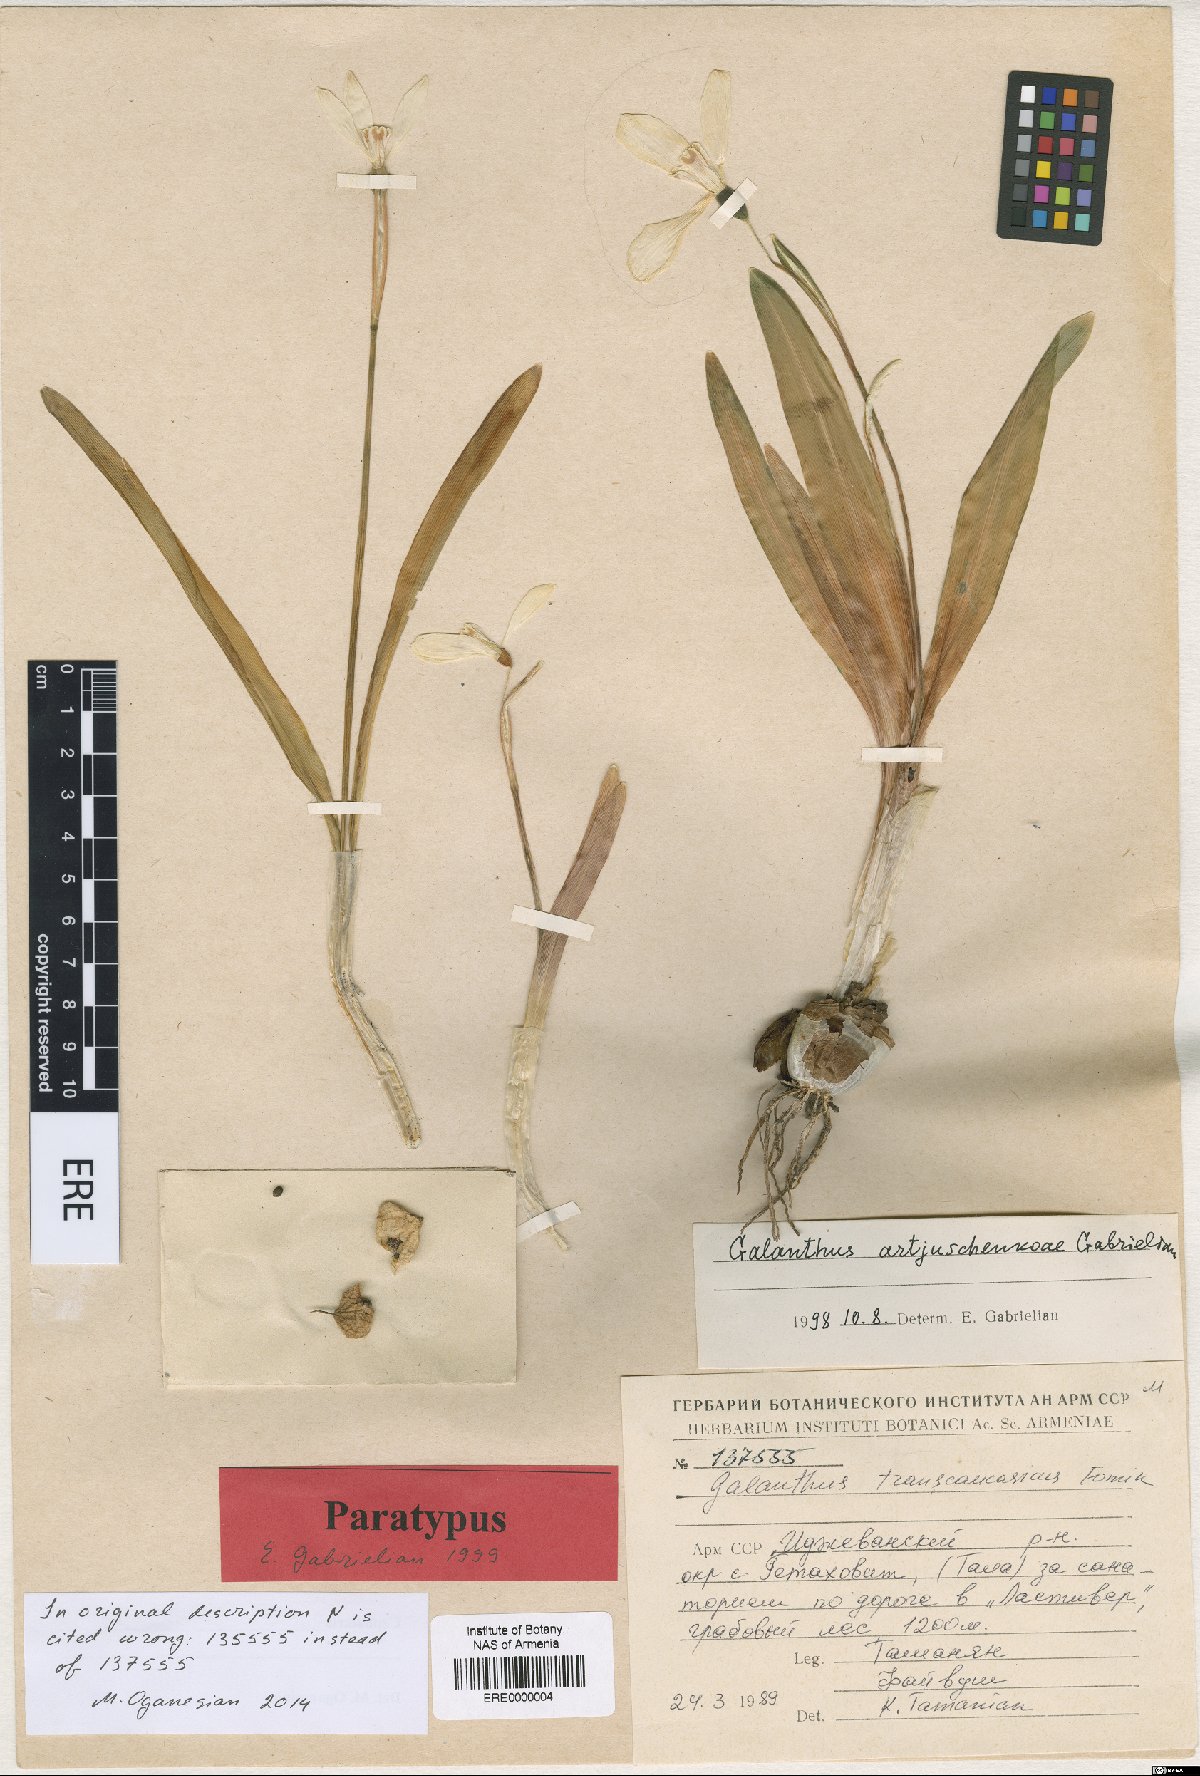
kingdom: Plantae
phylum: Tracheophyta
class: Liliopsida
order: Asparagales
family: Amaryllidaceae
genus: Galanthus
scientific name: Galanthus transcaucasicus
